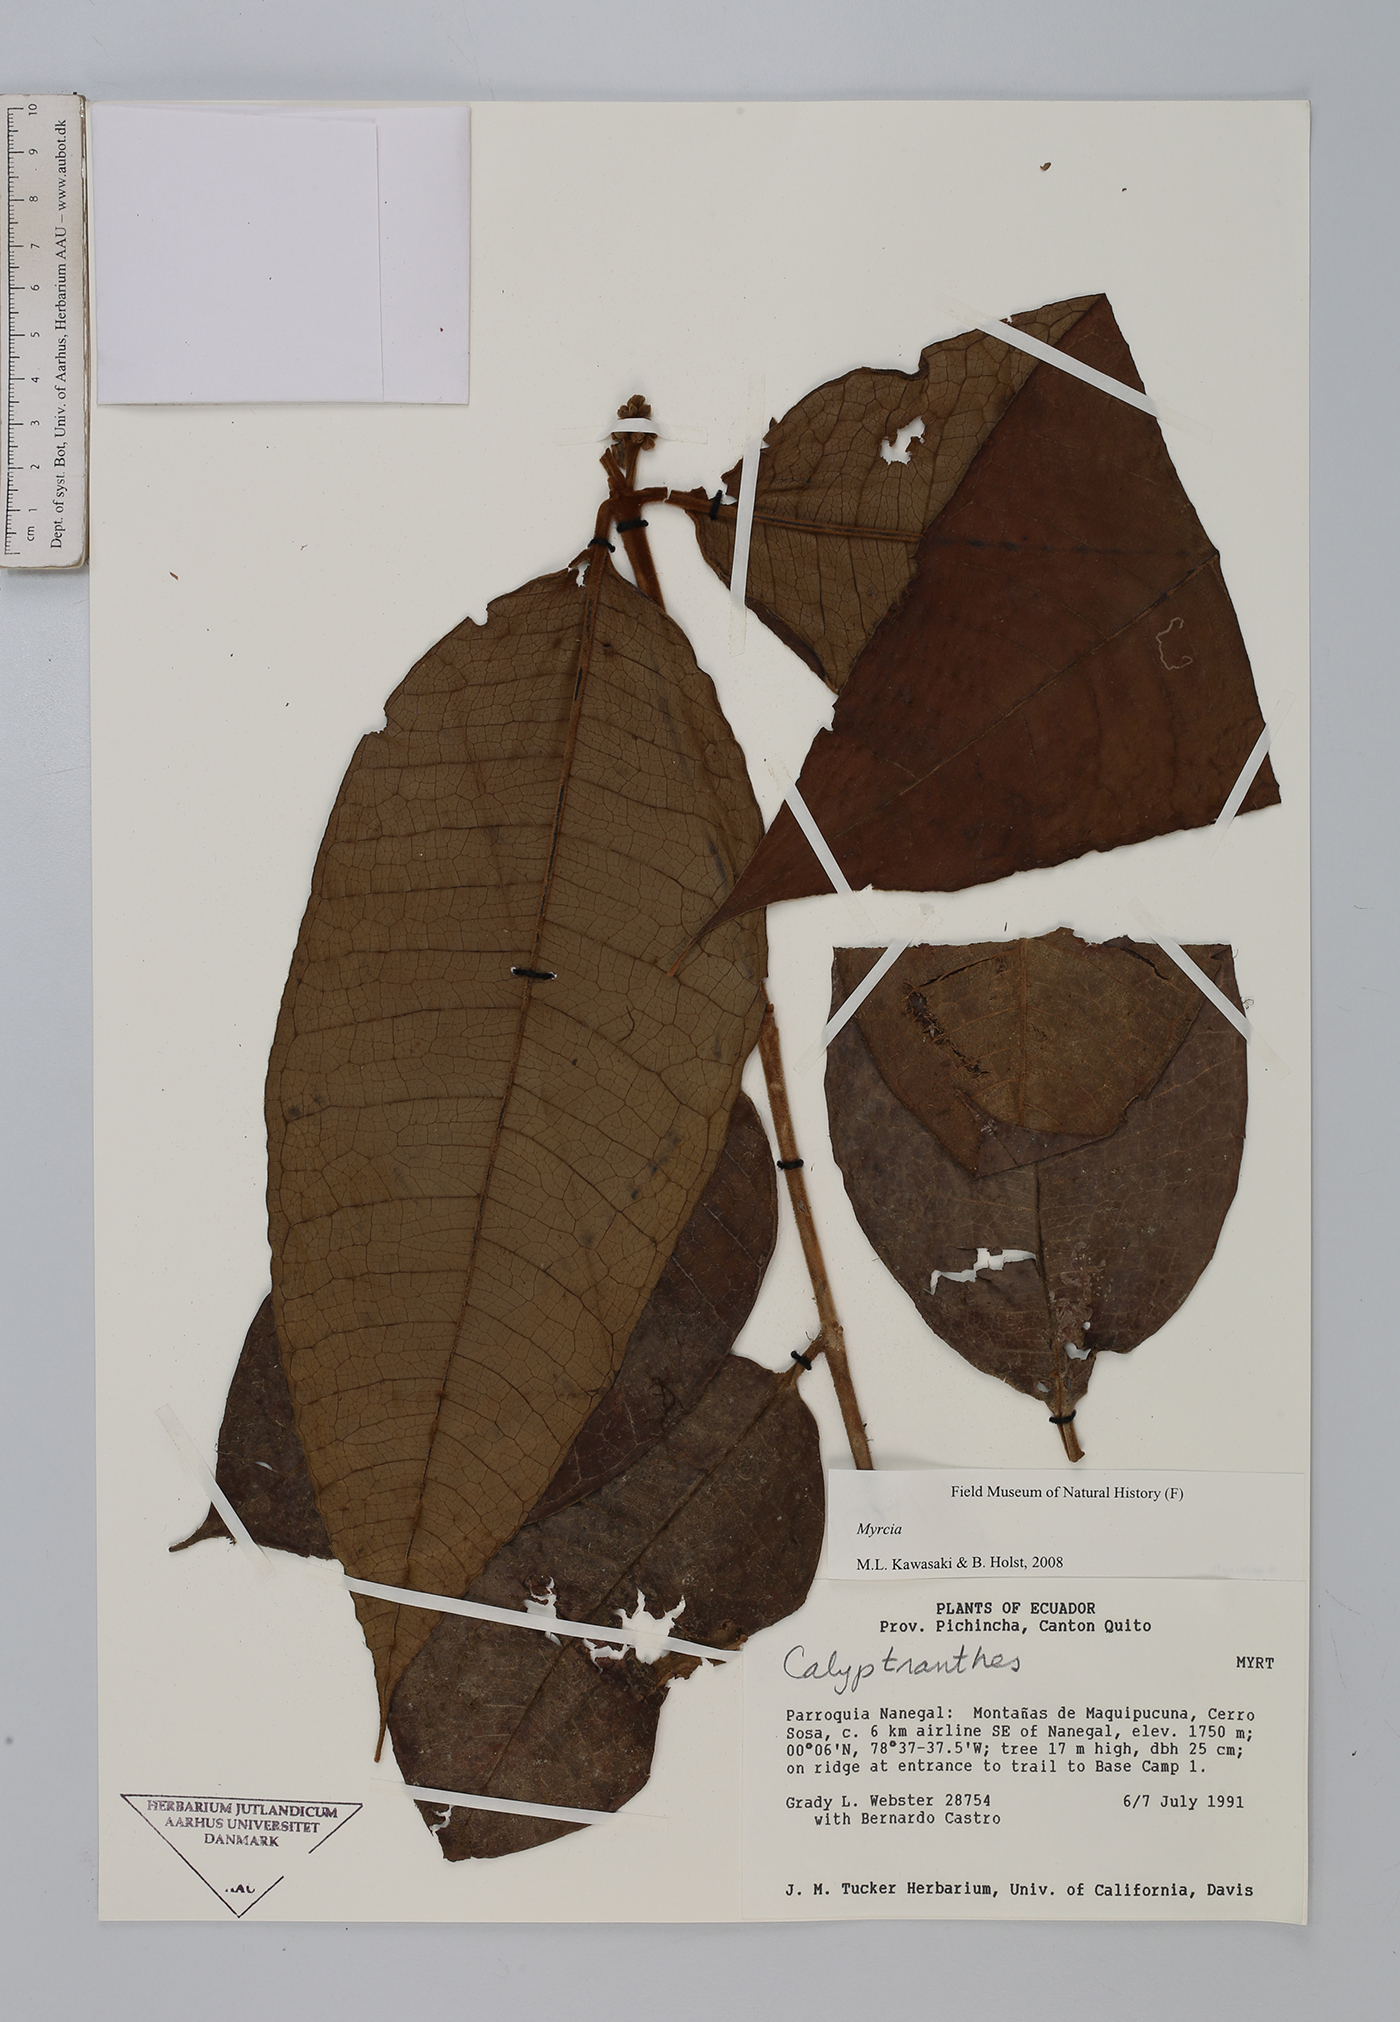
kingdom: Plantae
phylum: Tracheophyta
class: Magnoliopsida
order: Myrtales
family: Myrtaceae
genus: Myrcia
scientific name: Myrcia
